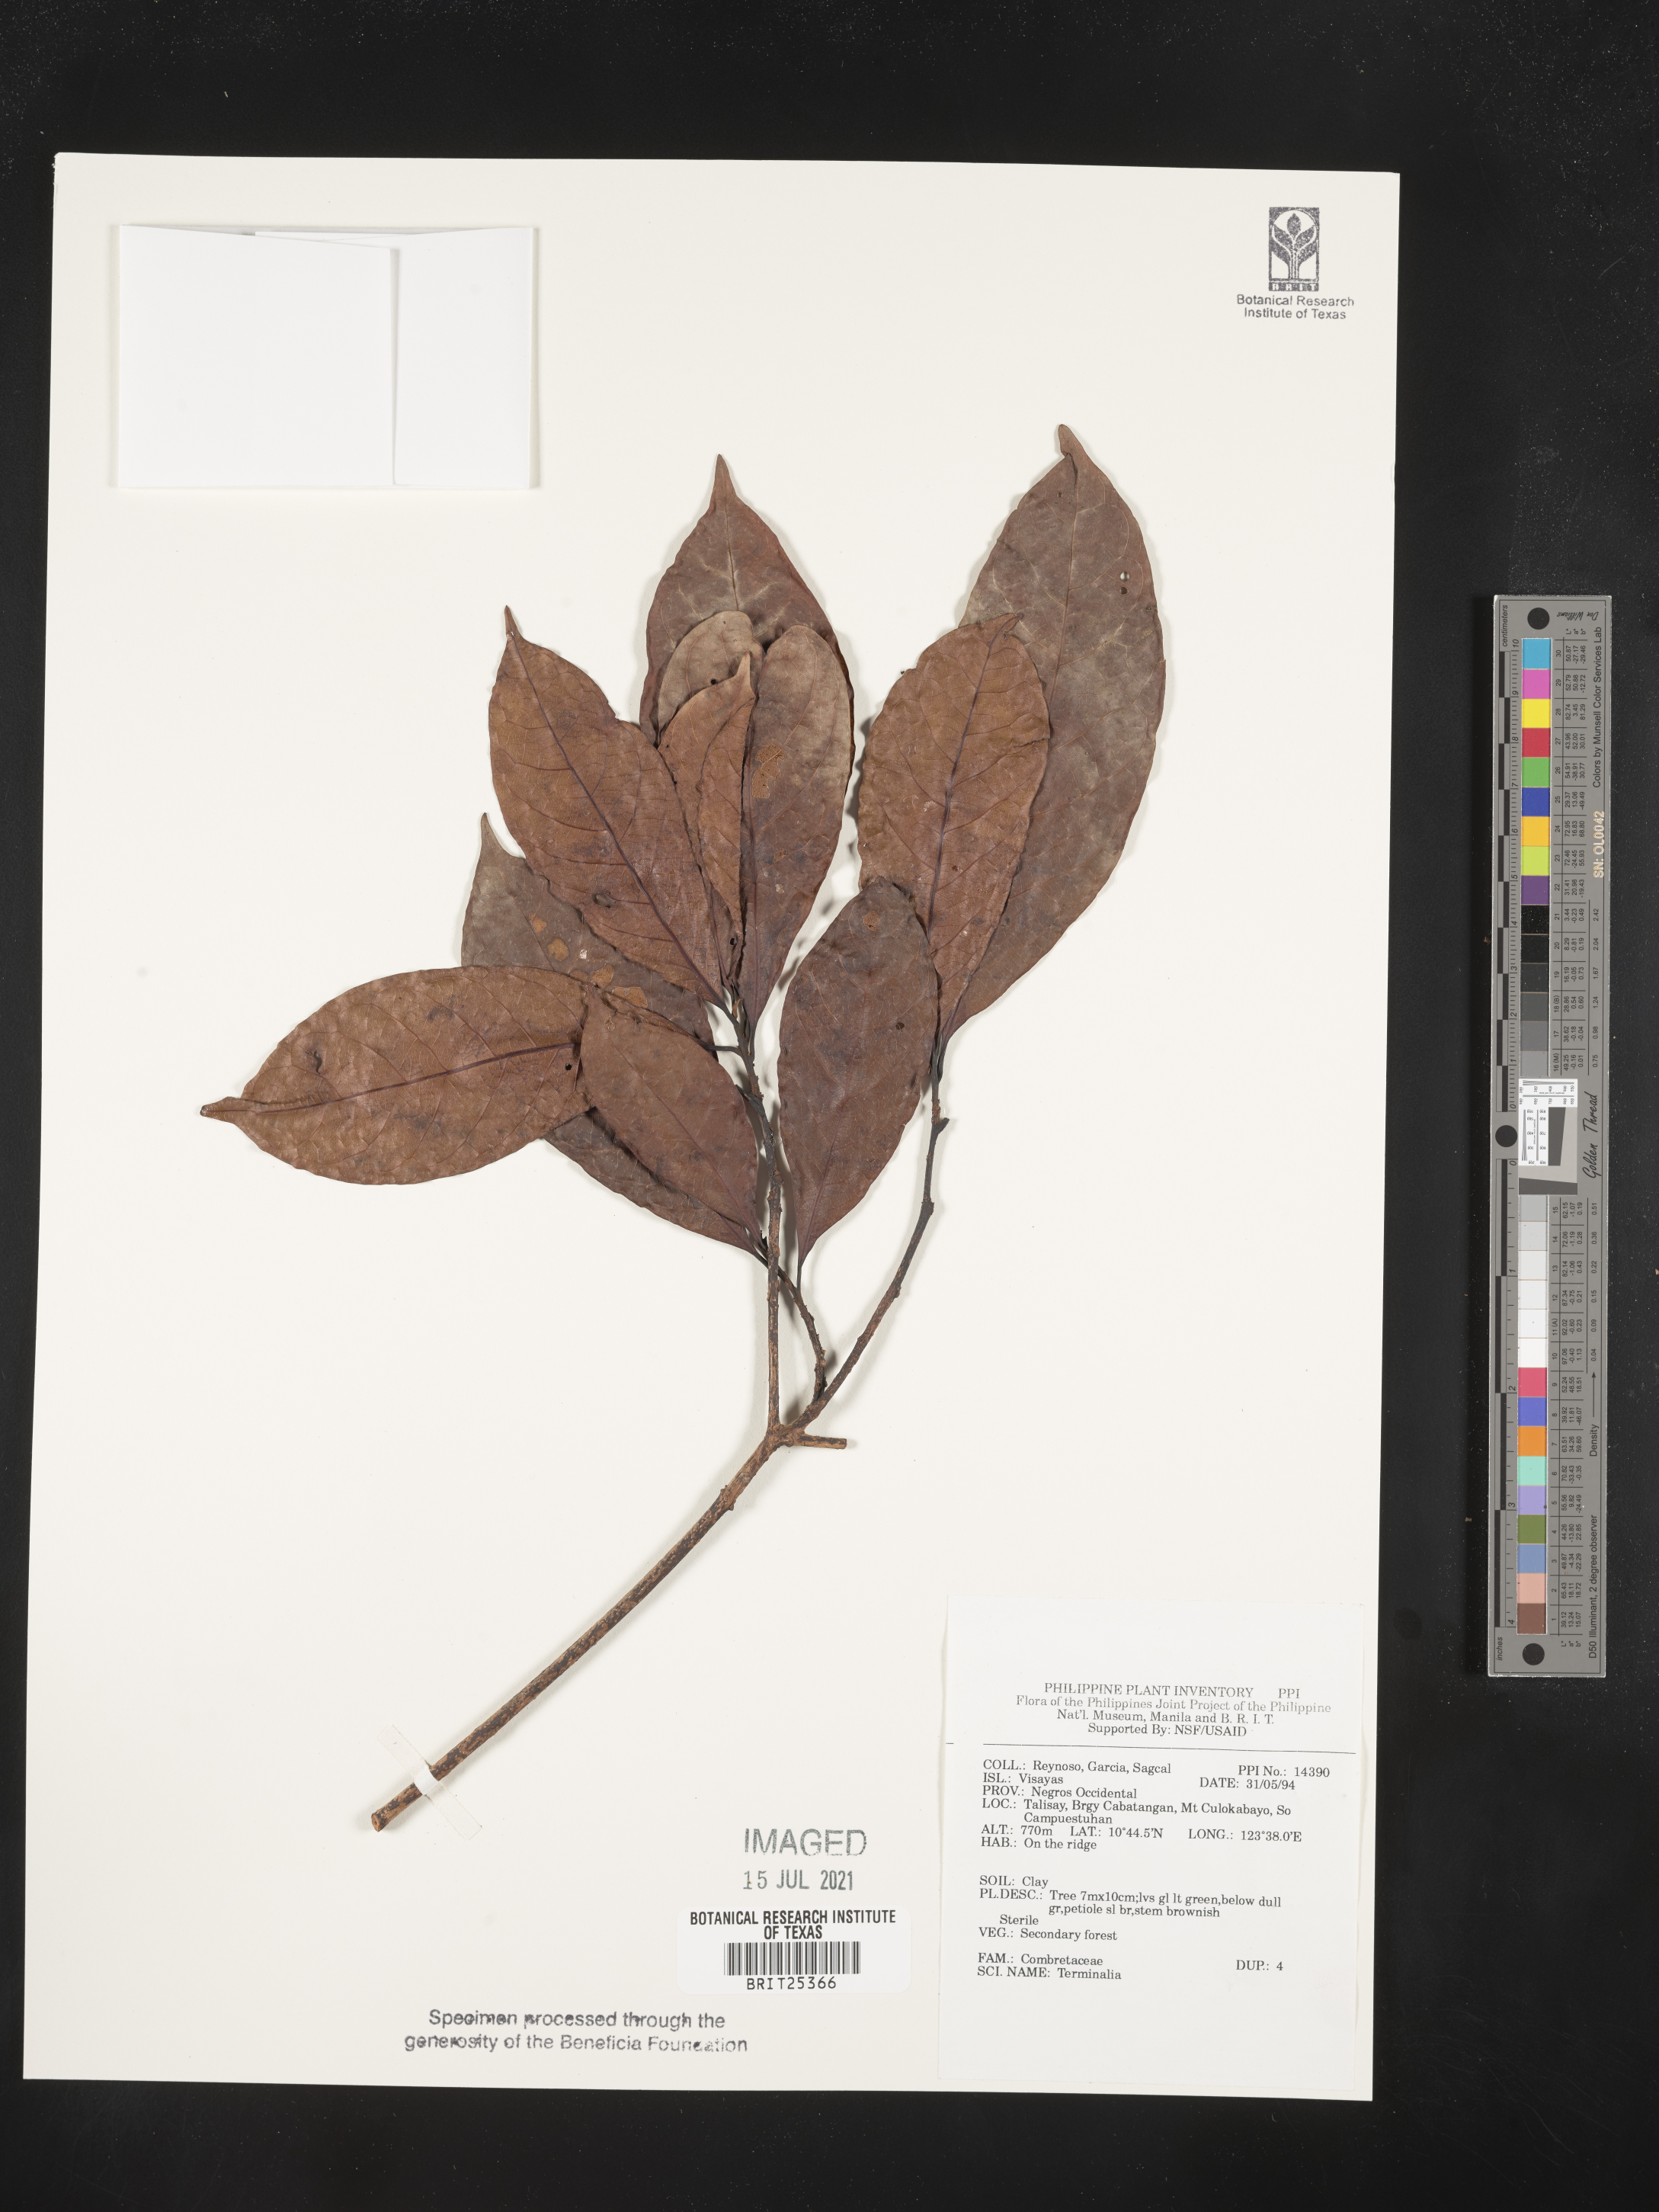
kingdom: Plantae
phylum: Tracheophyta
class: Magnoliopsida
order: Myrtales
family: Combretaceae
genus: Terminalia
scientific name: Terminalia
